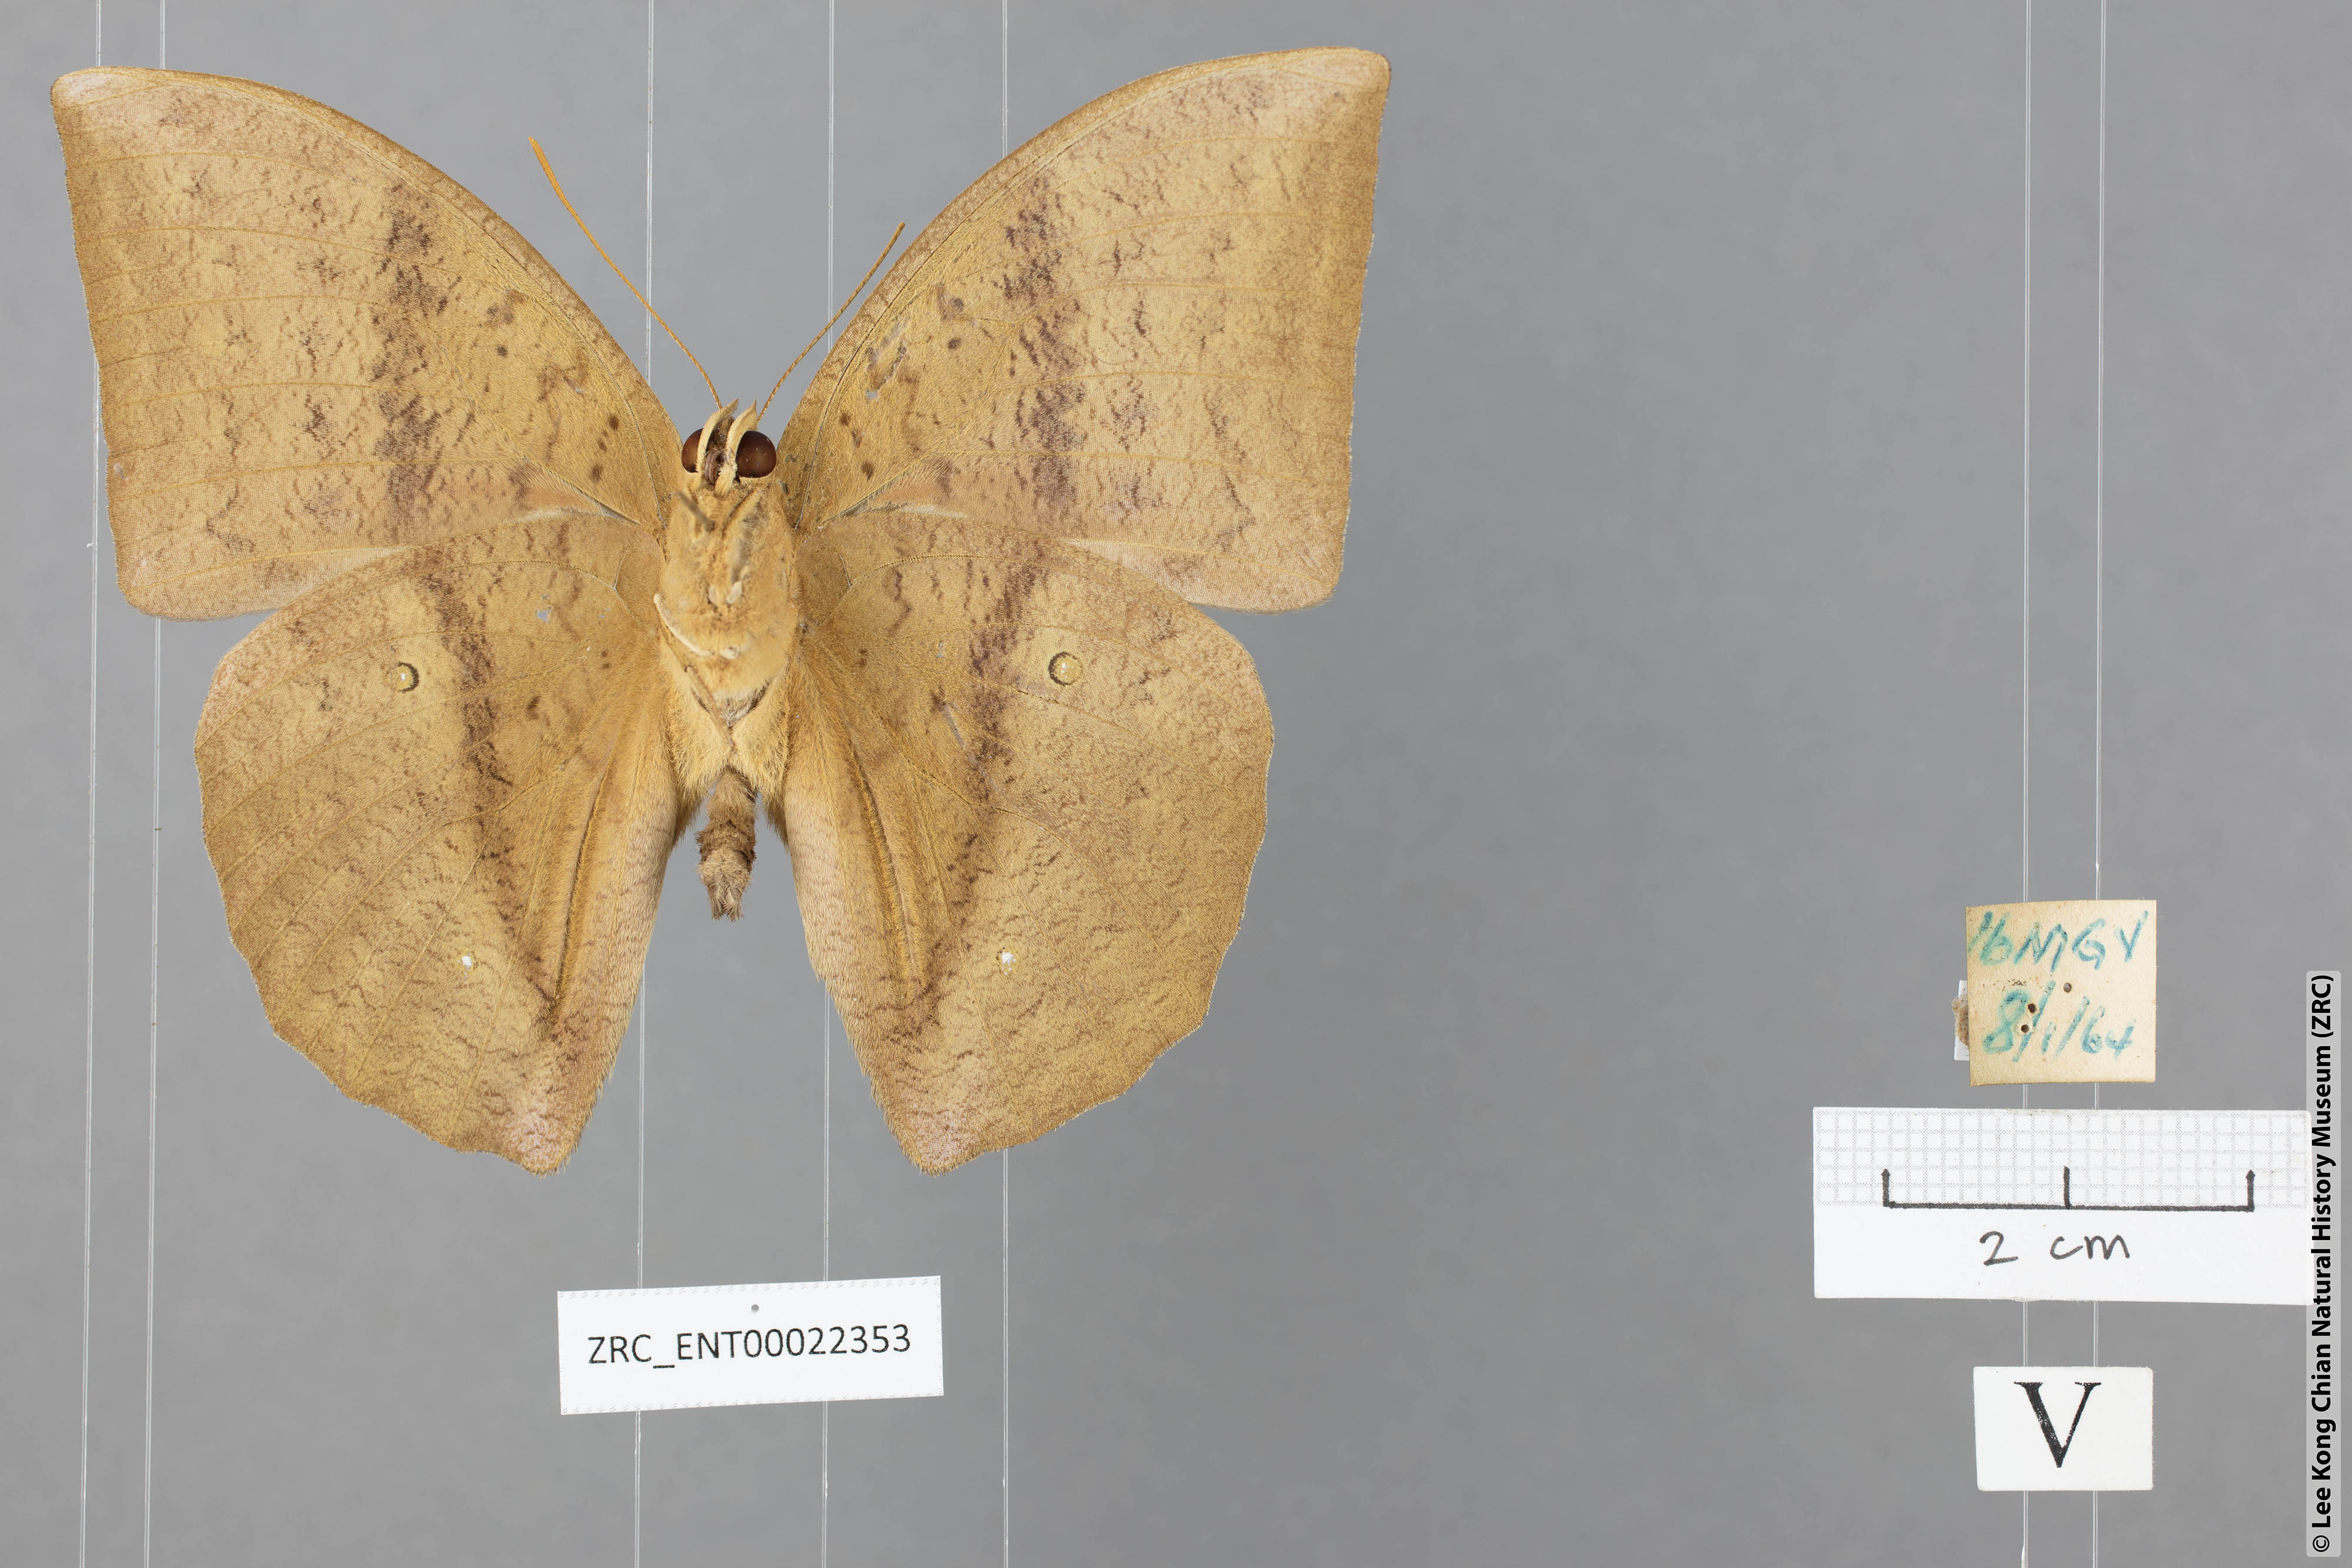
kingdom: Animalia
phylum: Arthropoda
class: Insecta
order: Lepidoptera
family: Nymphalidae
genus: Discophora
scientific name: Discophora sondaica
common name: Common duffer
